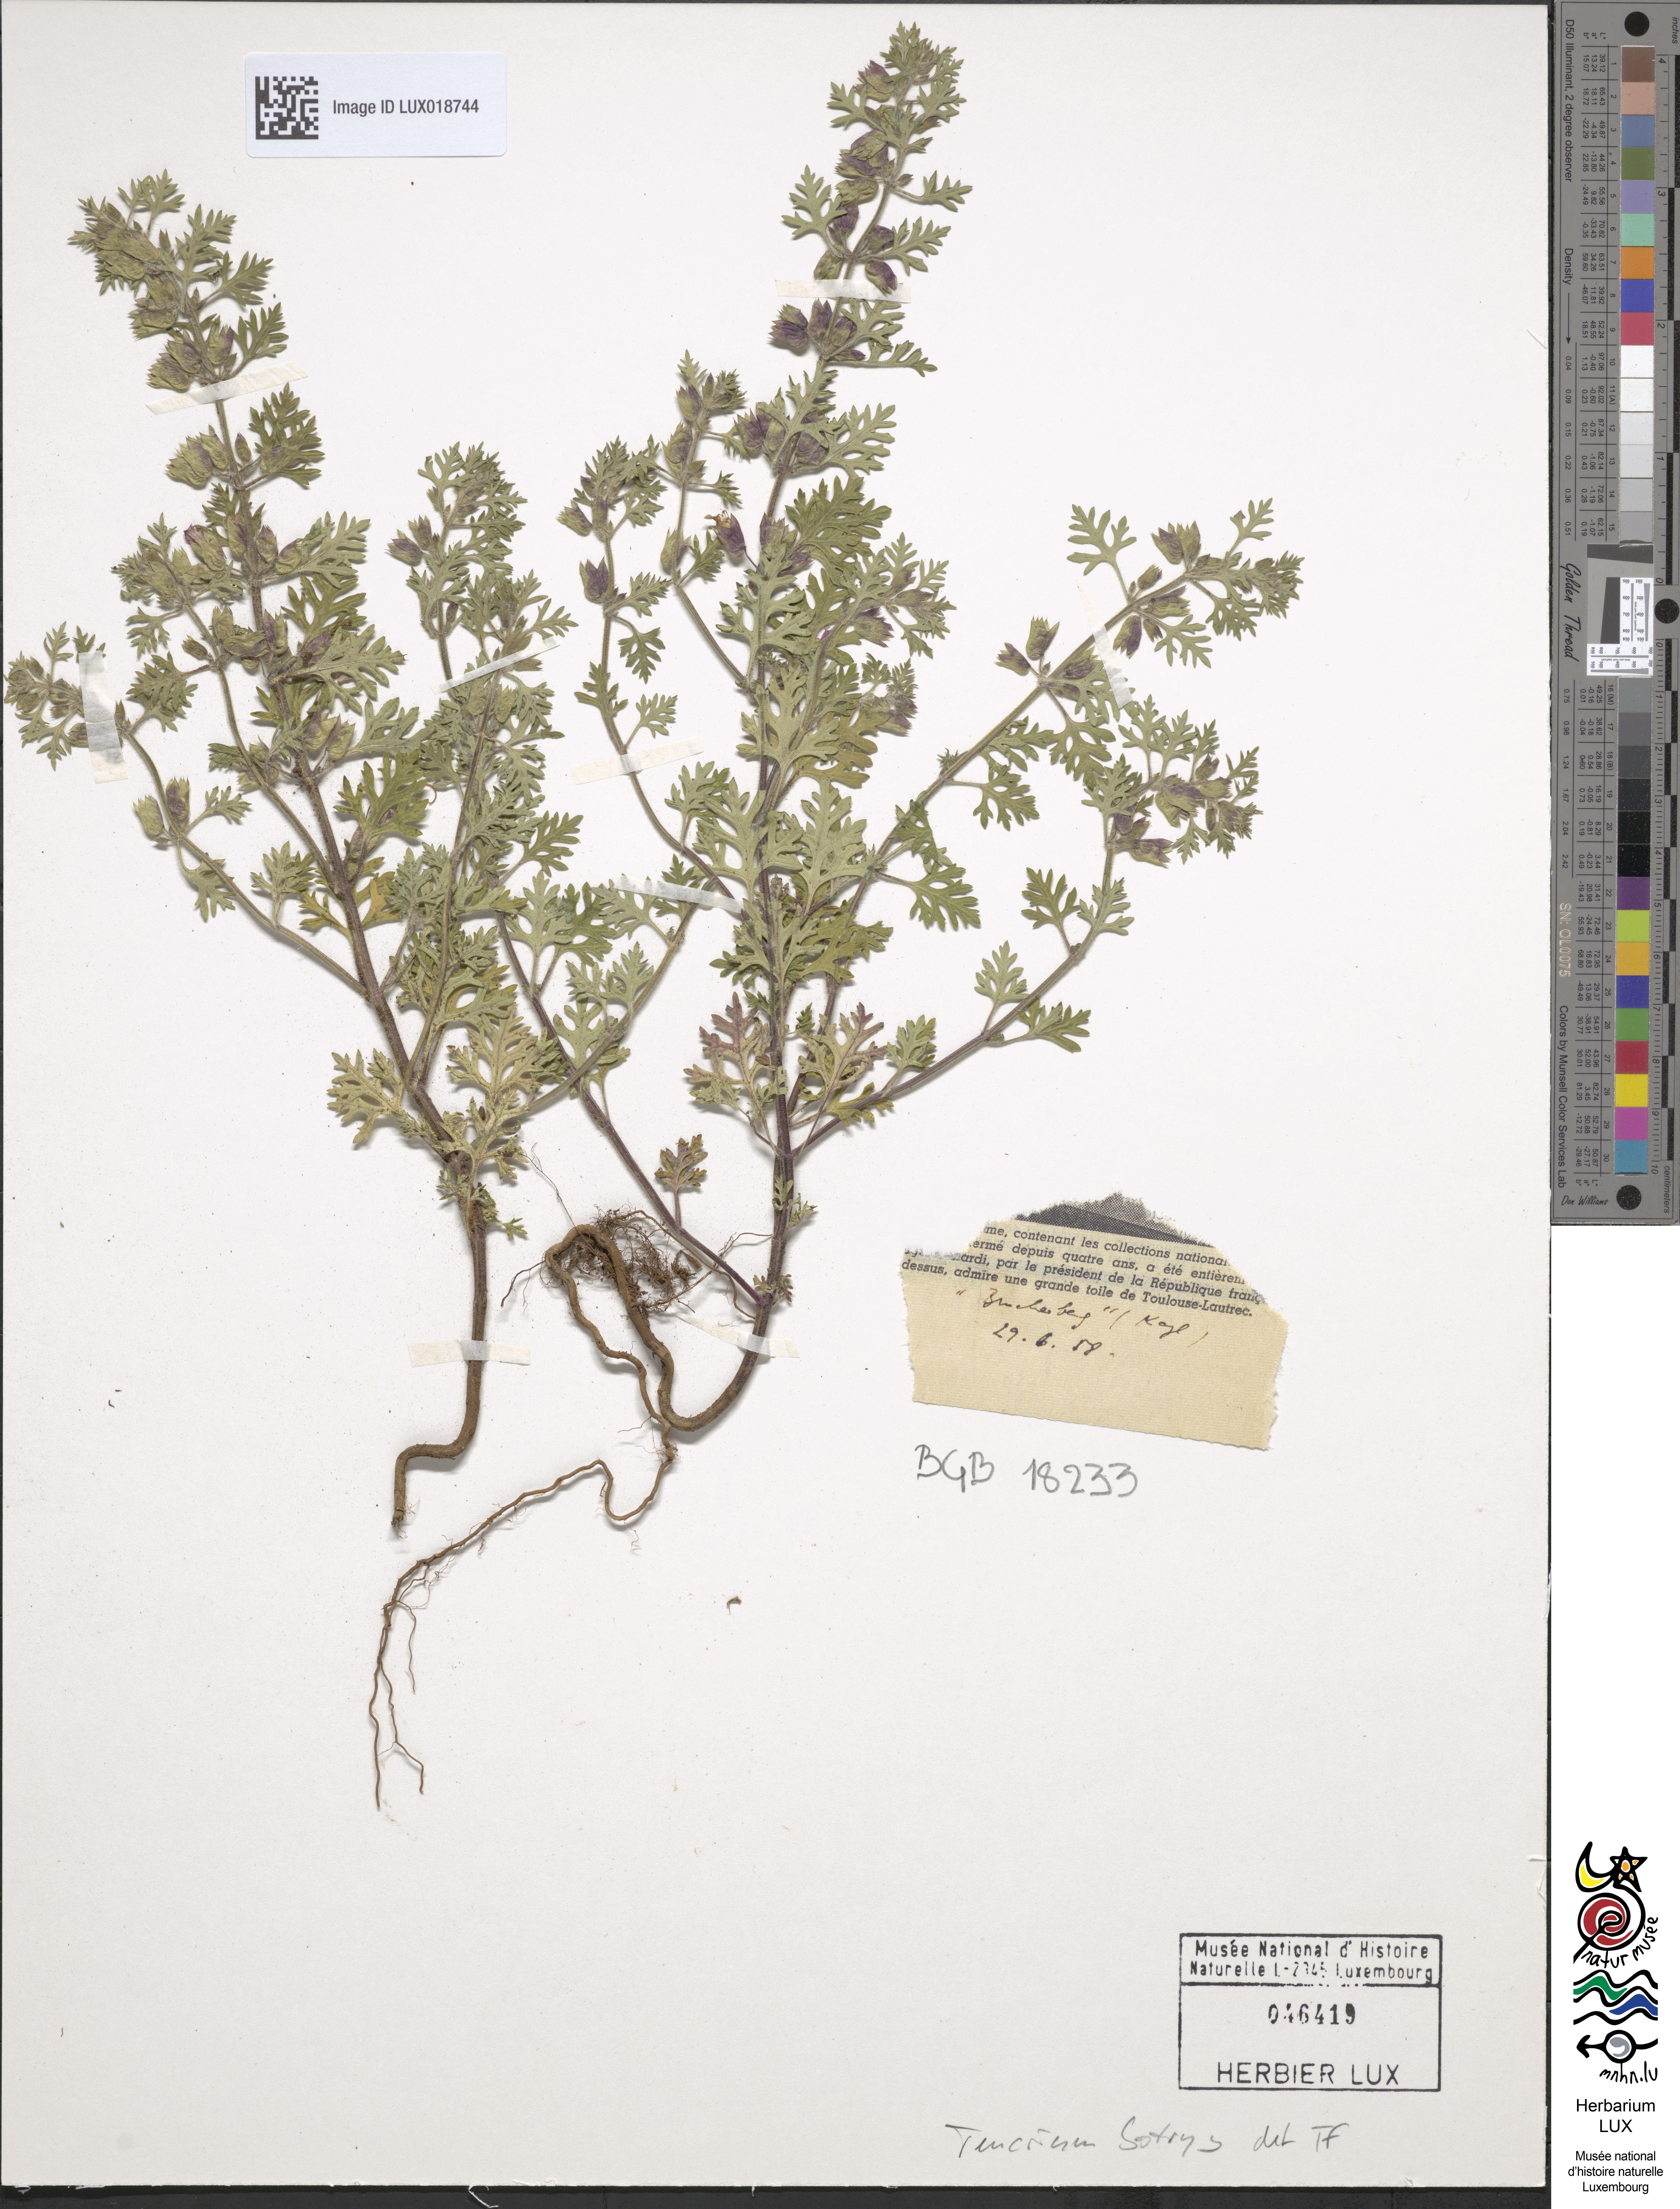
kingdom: Plantae
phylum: Tracheophyta
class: Magnoliopsida
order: Lamiales
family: Lamiaceae
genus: Teucrium
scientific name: Teucrium botrys
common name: Cut-leaved germander
